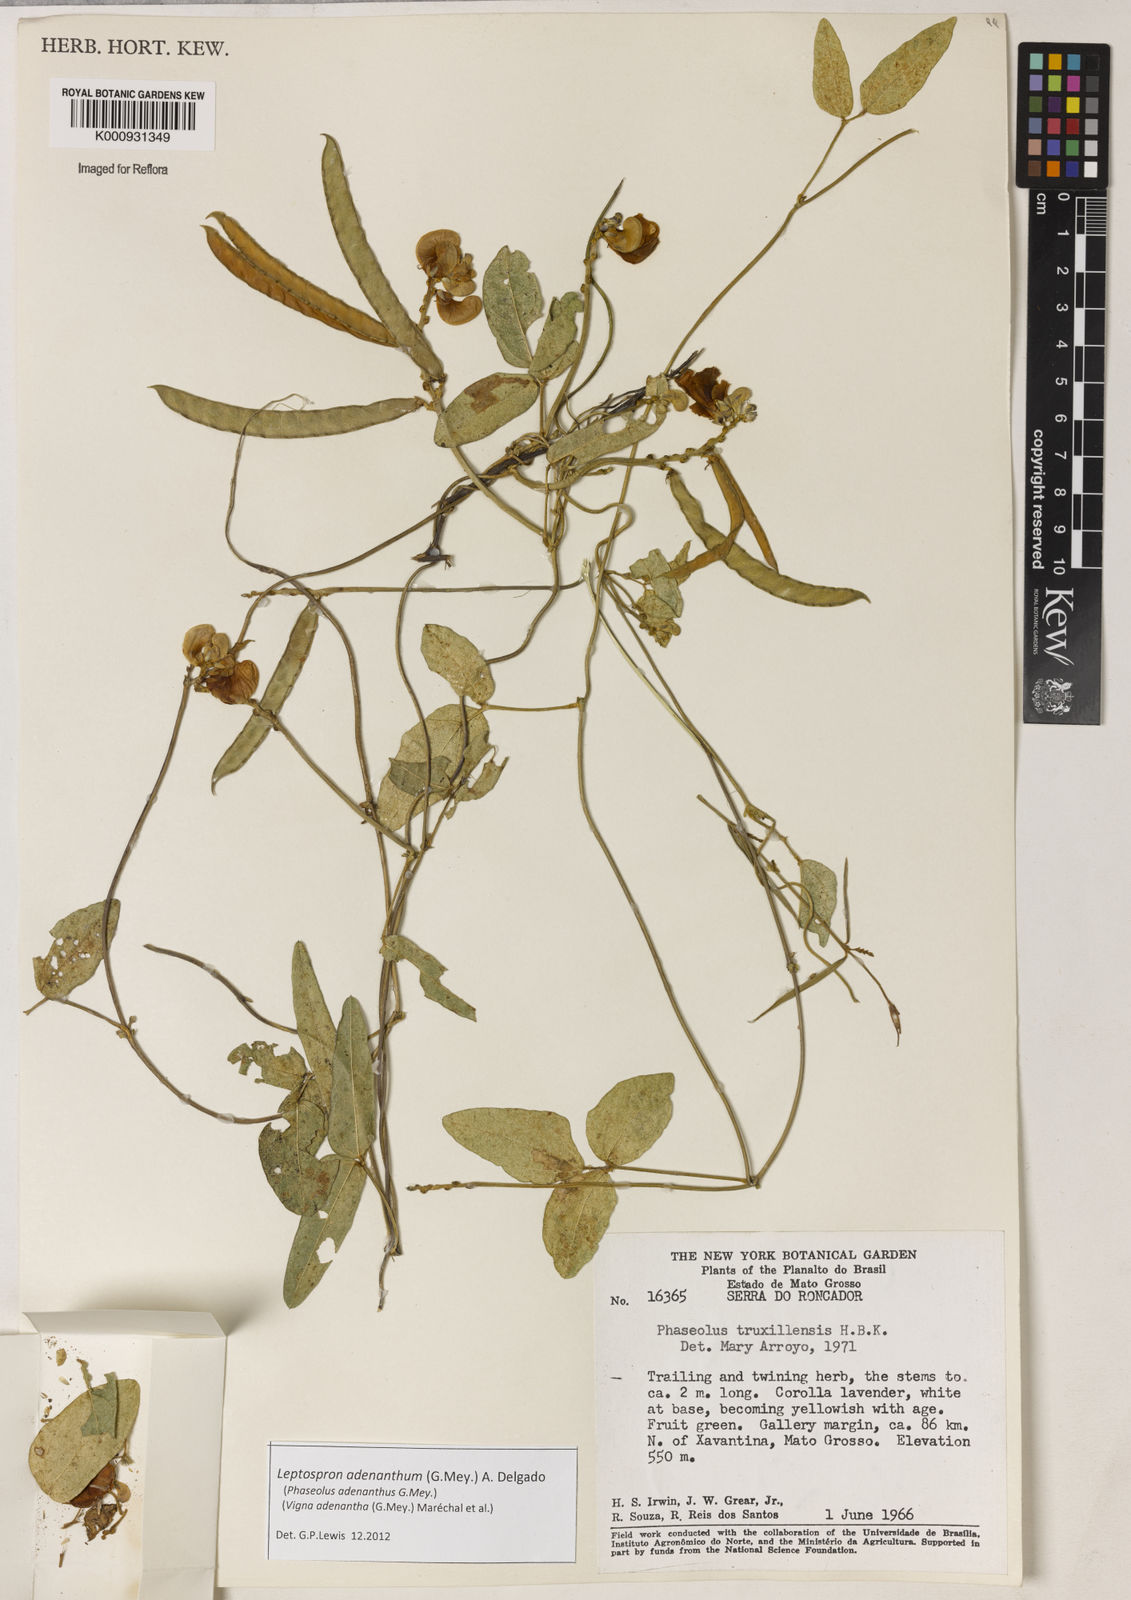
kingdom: Plantae
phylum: Tracheophyta
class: Magnoliopsida
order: Fabales
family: Fabaceae
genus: Leptospron
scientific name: Leptospron adenanthum
